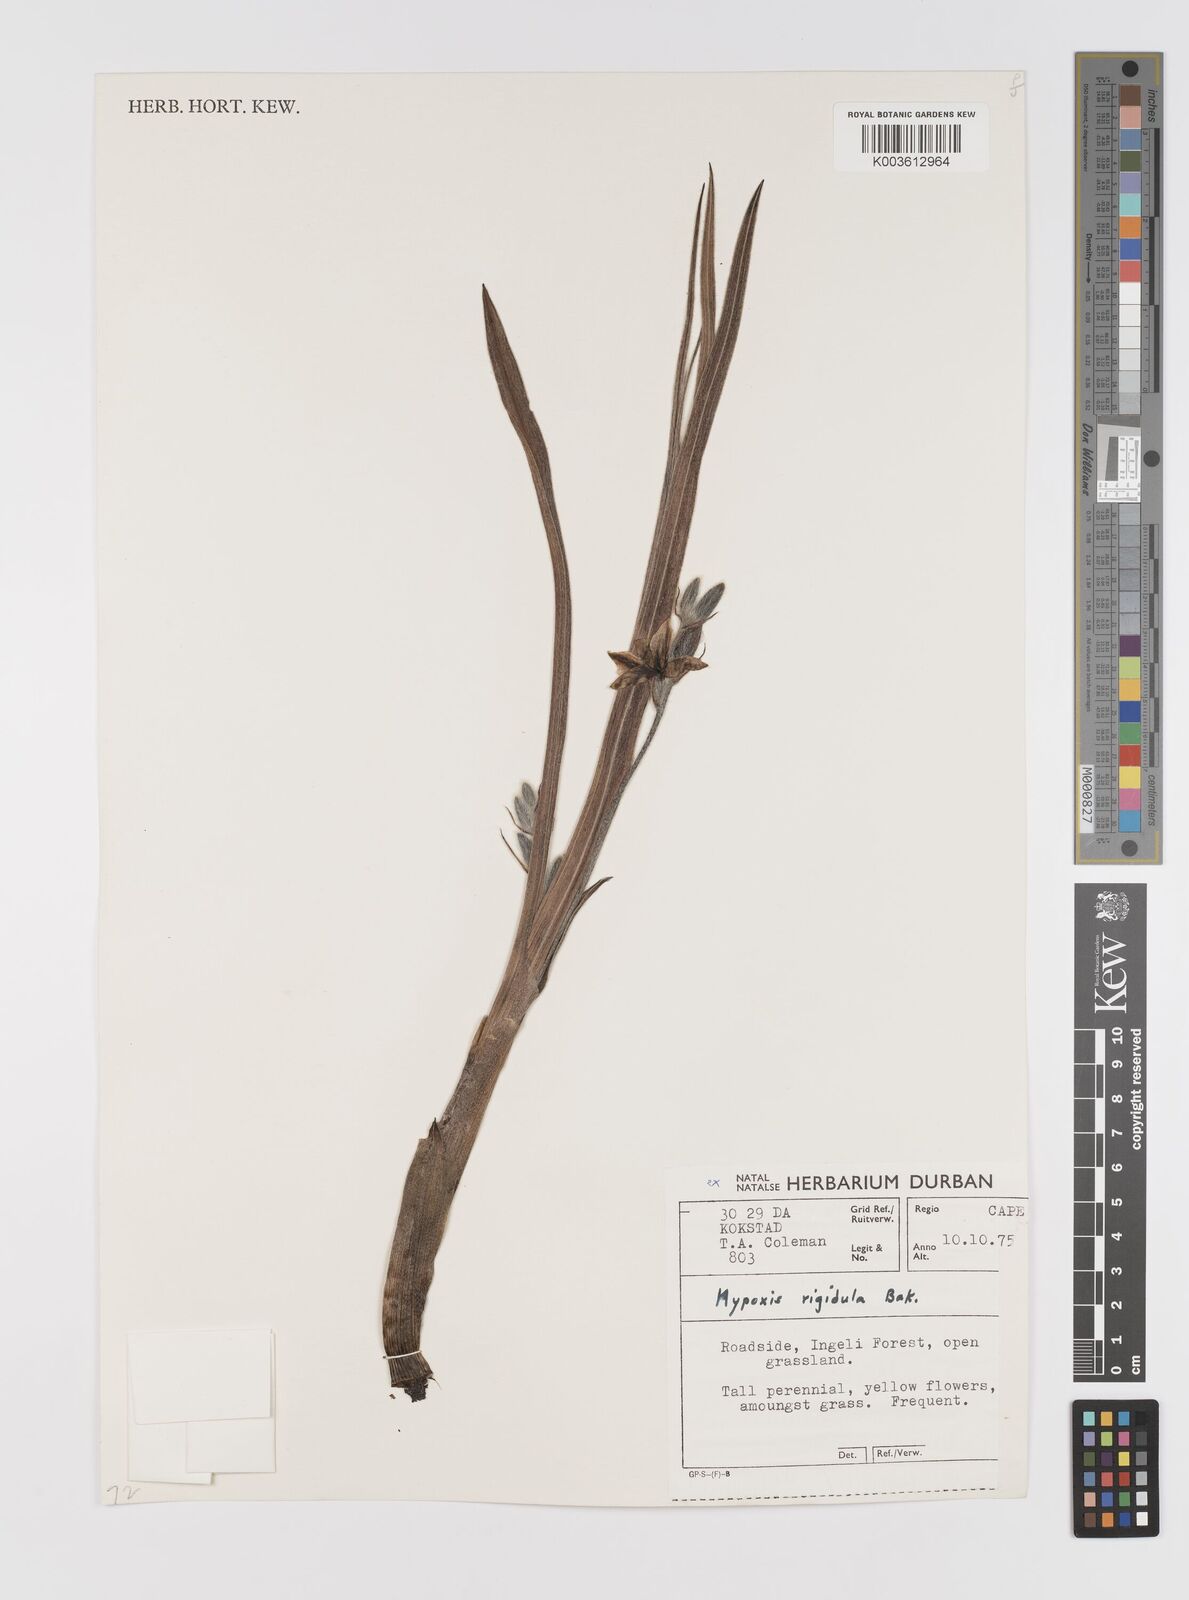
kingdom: Plantae
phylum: Tracheophyta
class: Liliopsida
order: Asparagales
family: Hypoxidaceae
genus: Hypoxis
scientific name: Hypoxis rigidula
